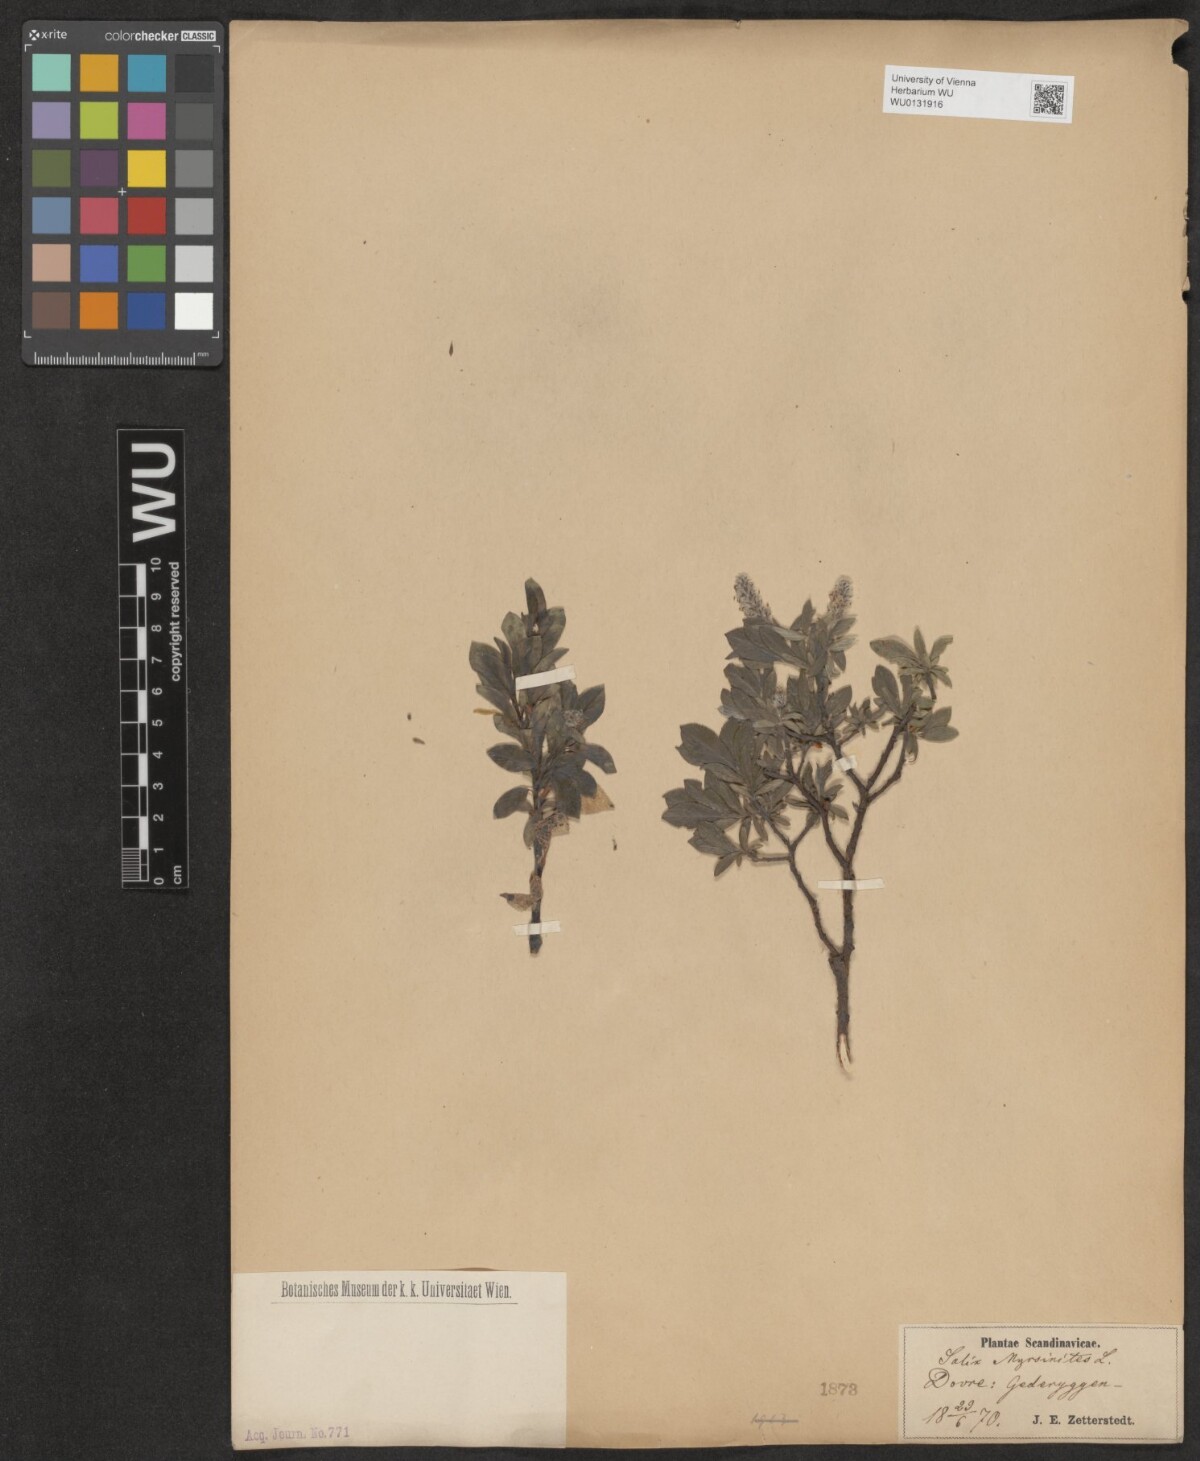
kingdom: Plantae
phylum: Tracheophyta
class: Magnoliopsida
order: Malpighiales
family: Salicaceae
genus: Salix
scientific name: Salix myrsinites
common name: Myrtle willow
